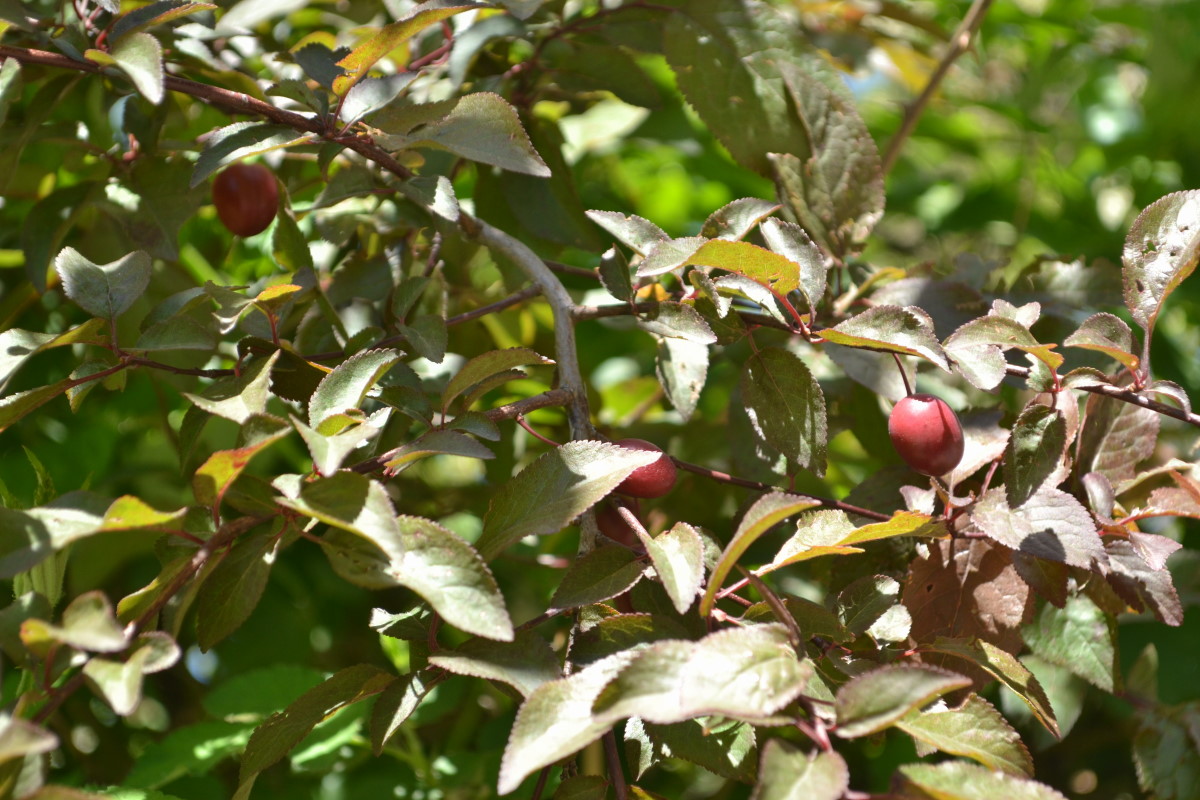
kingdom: Plantae
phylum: Tracheophyta
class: Magnoliopsida
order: Rosales
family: Rosaceae
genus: Prunus
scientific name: Prunus cerasifera
